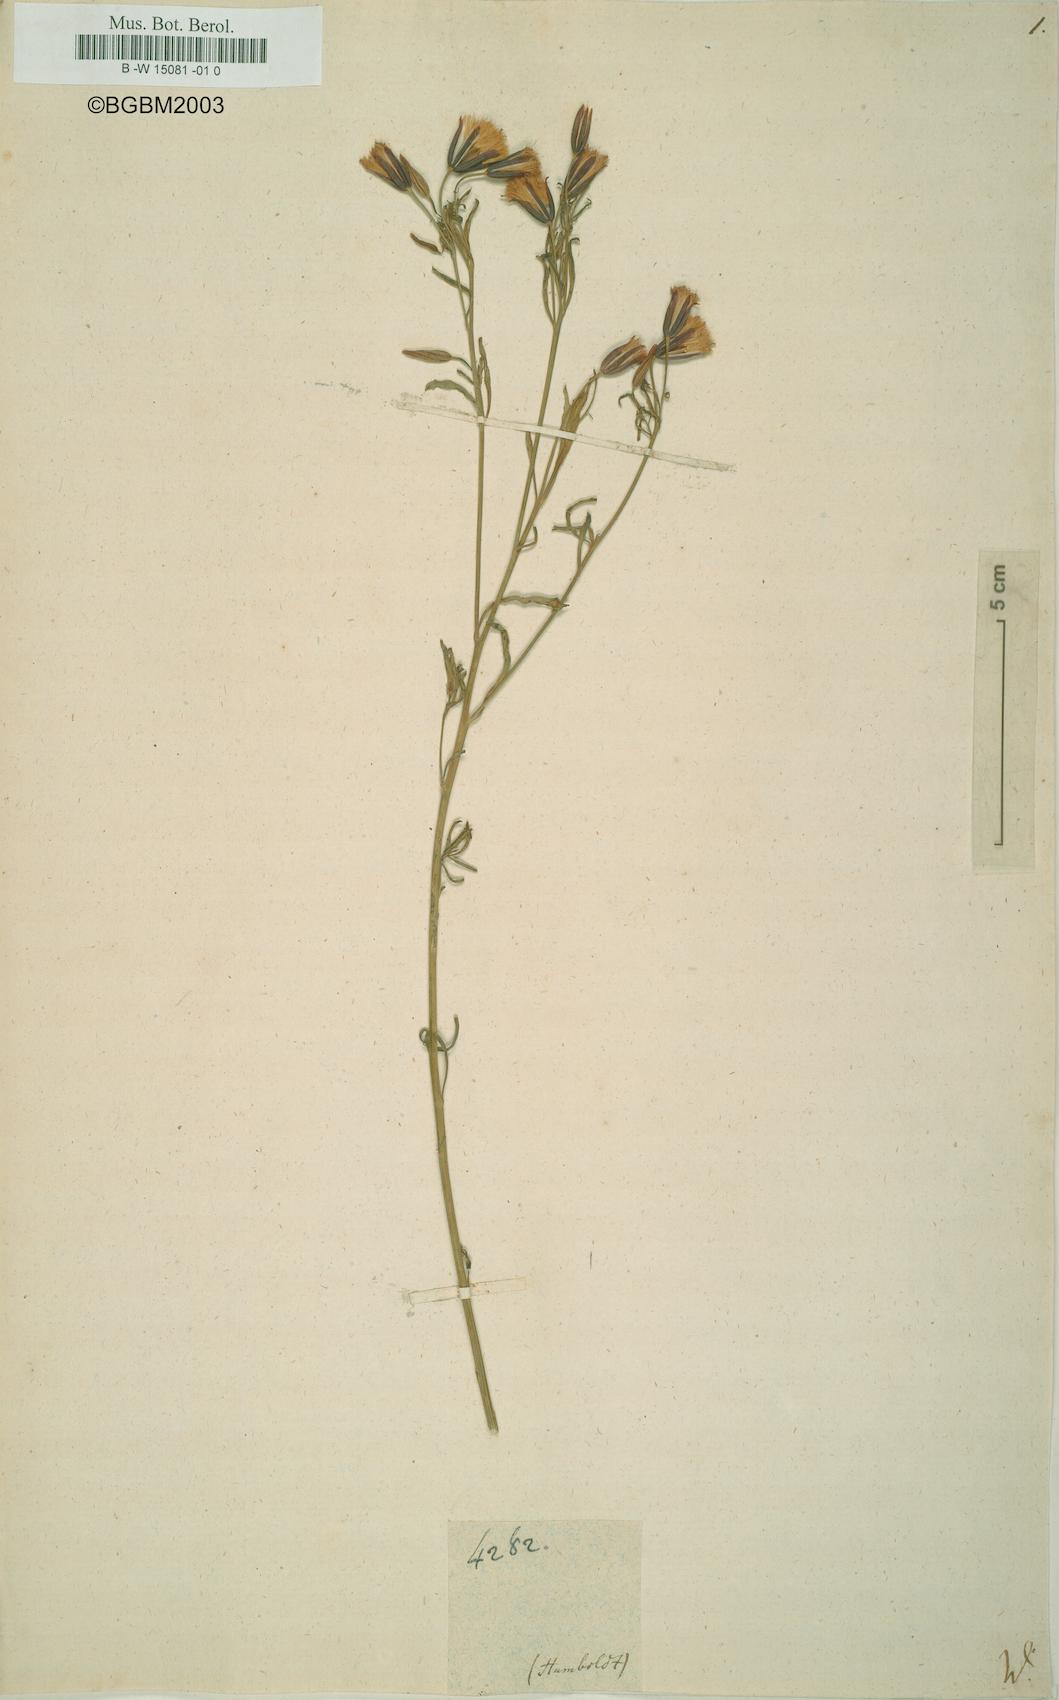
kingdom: Plantae
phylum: Tracheophyta
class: Magnoliopsida
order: Asterales
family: Asteraceae
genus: Kleinia
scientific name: Kleinia
